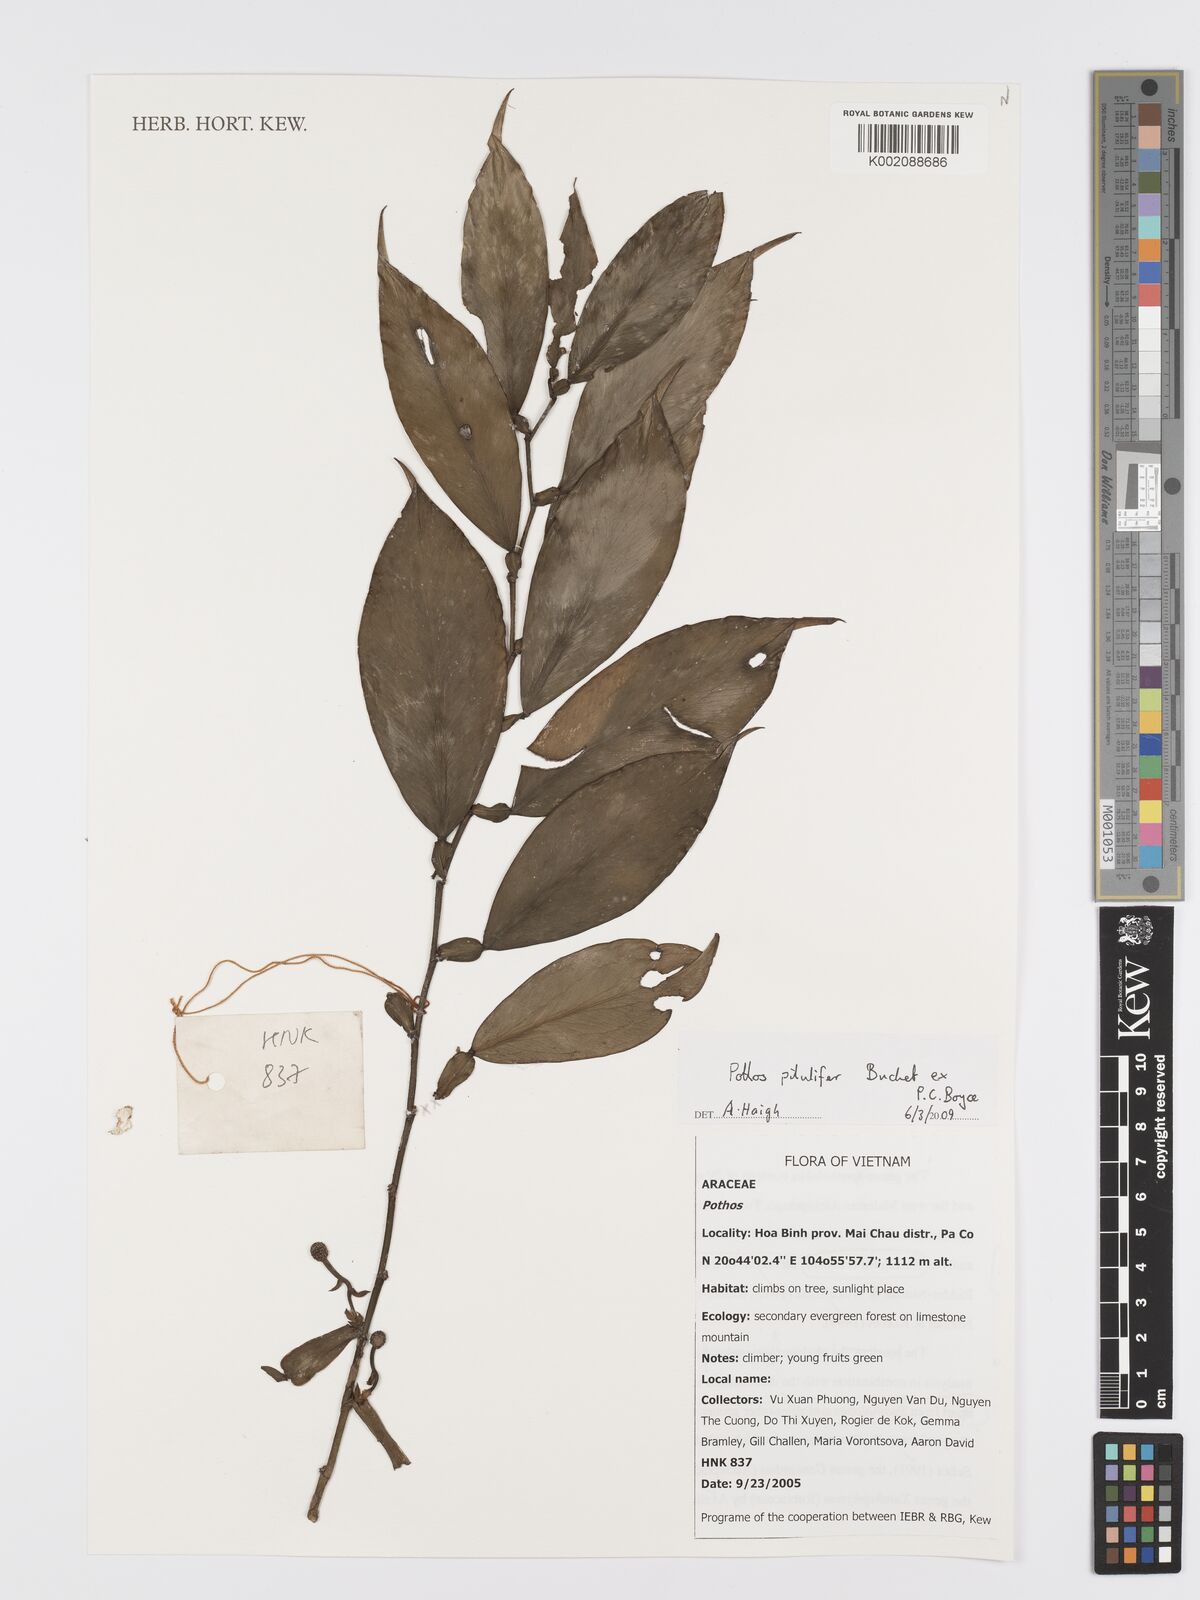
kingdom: Plantae
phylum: Tracheophyta
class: Liliopsida
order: Alismatales
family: Araceae
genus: Pothos
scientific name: Pothos pilulifer
